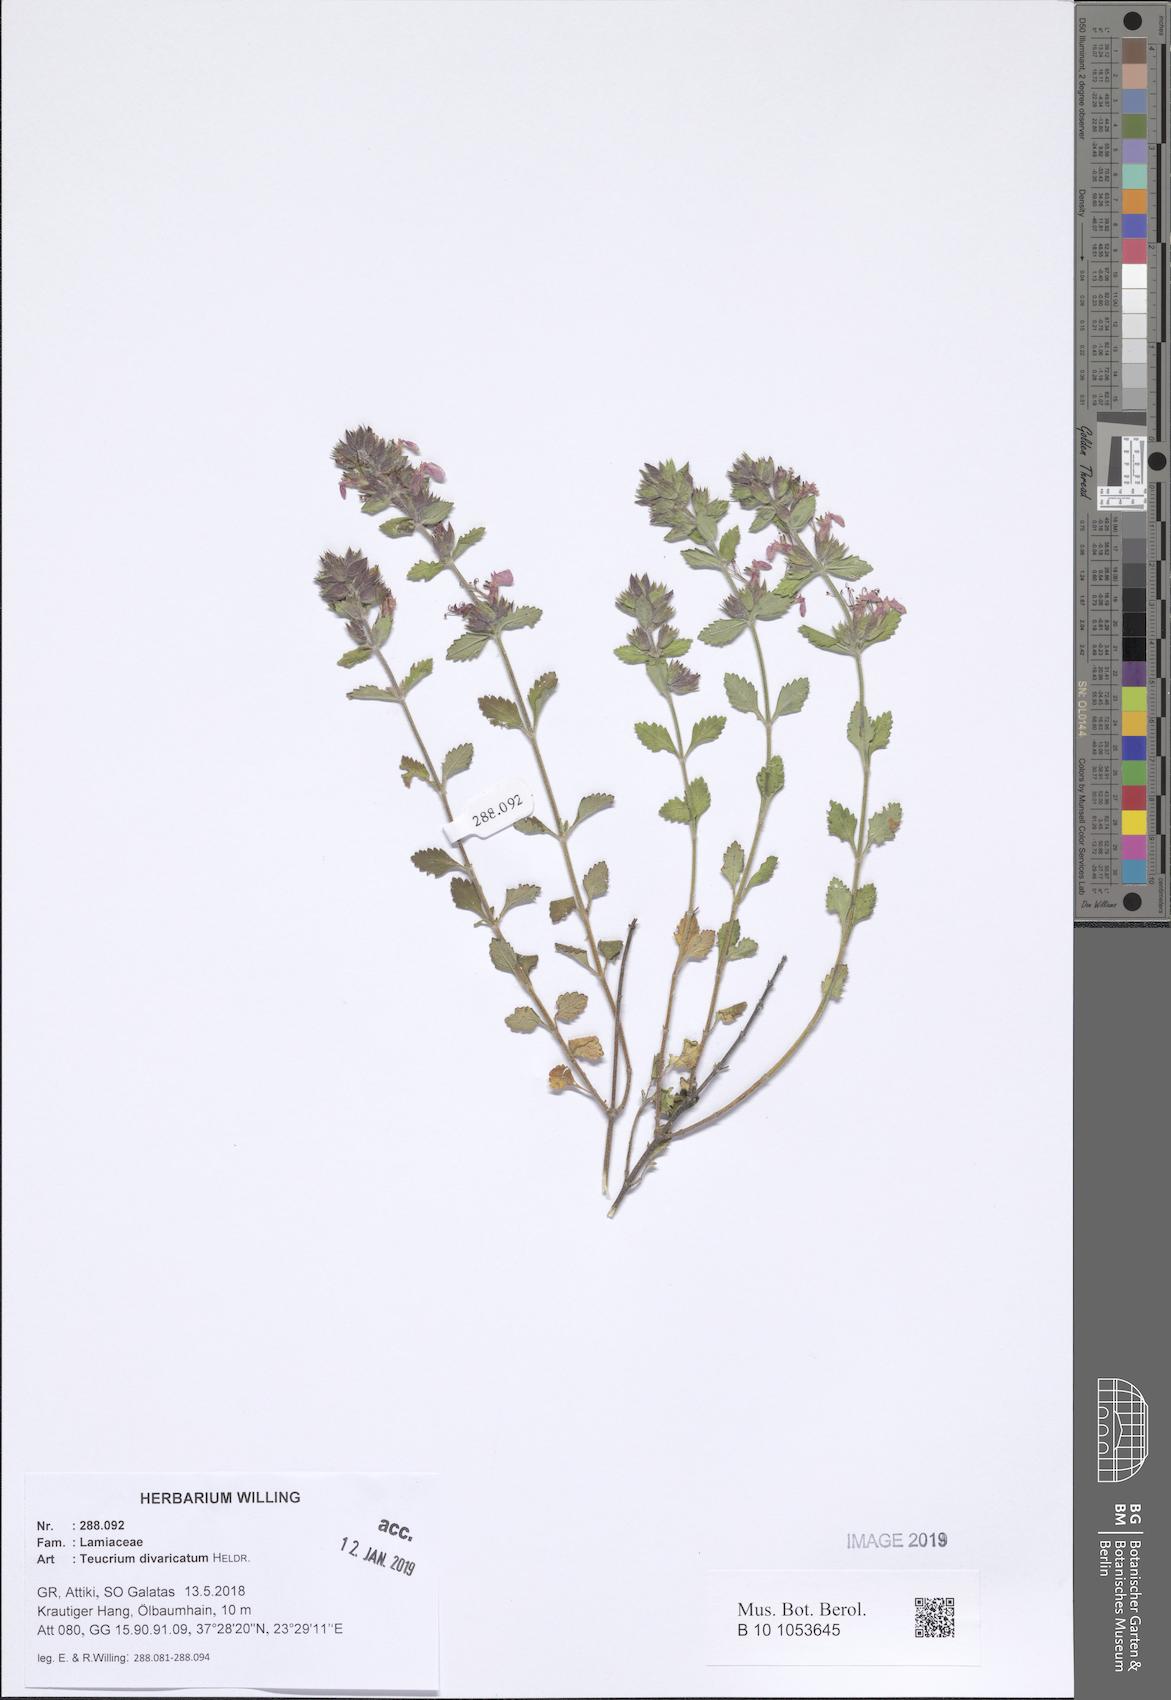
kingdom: Plantae
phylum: Tracheophyta
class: Magnoliopsida
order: Lamiales
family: Lamiaceae
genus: Teucrium
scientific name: Teucrium divaricatum
